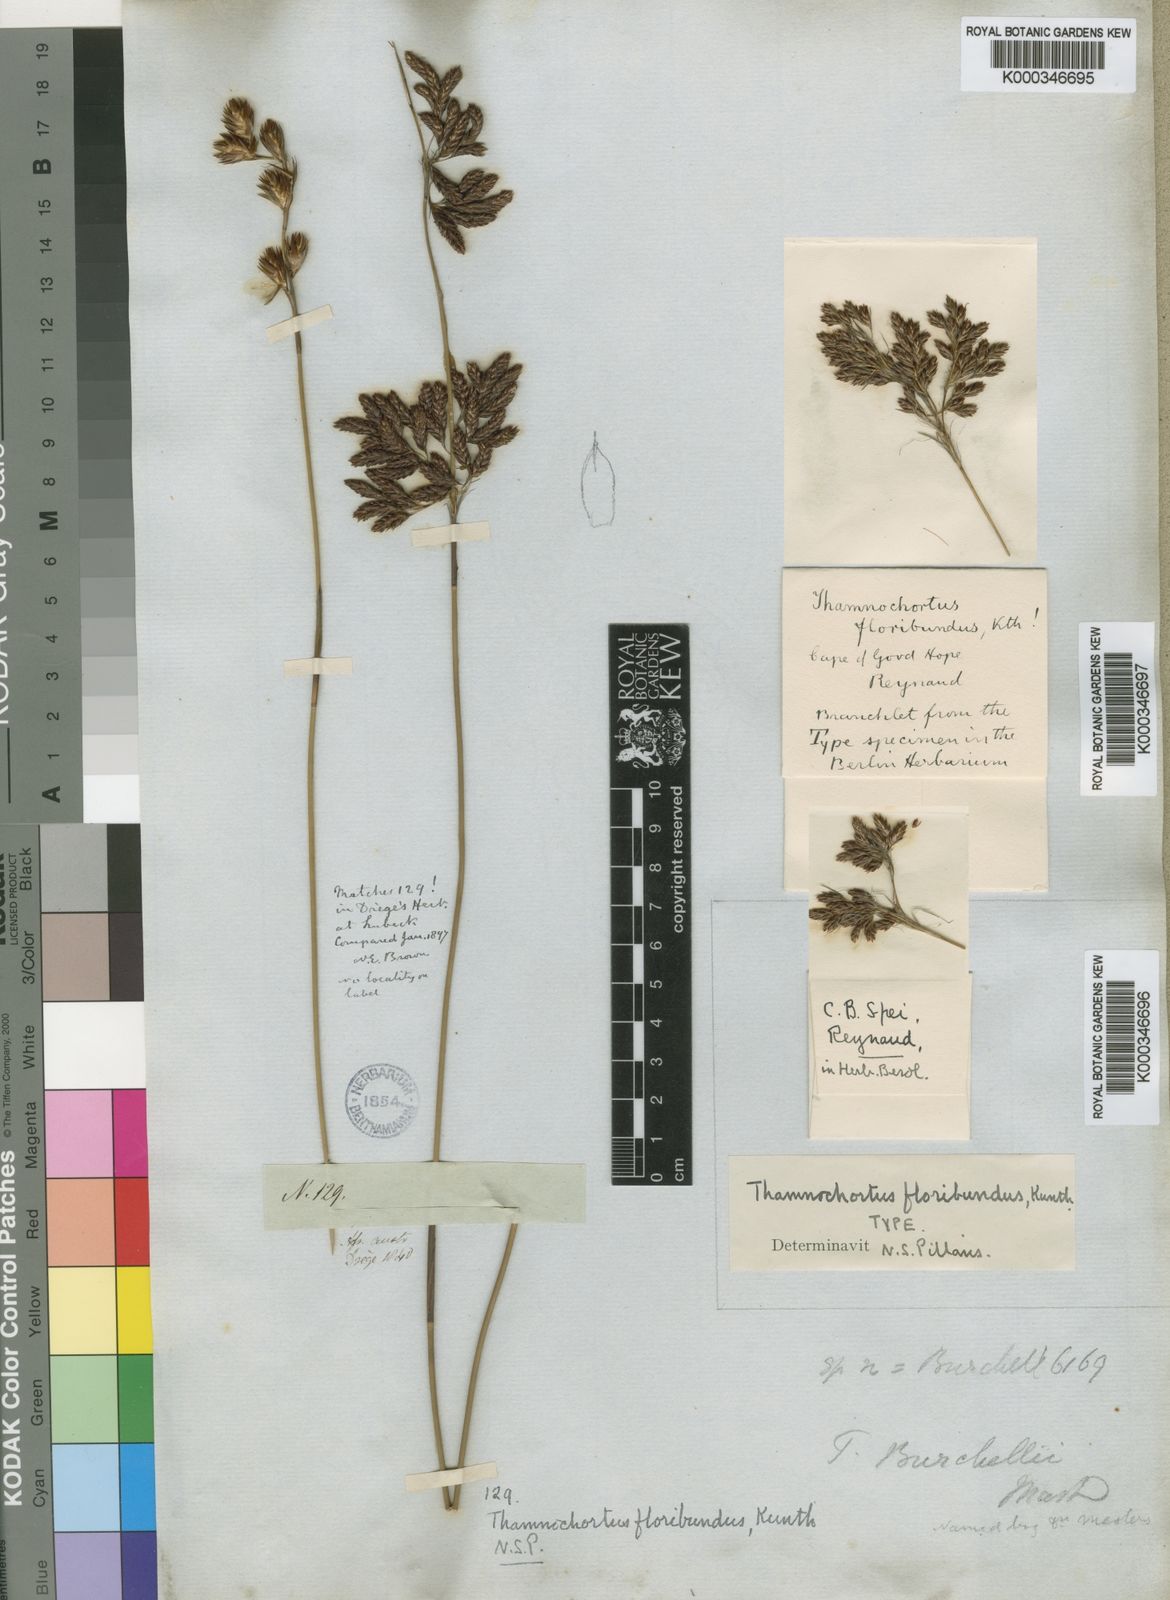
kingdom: Plantae
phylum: Tracheophyta
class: Liliopsida
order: Poales
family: Restionaceae
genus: Thamnochortus
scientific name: Thamnochortus erectus
